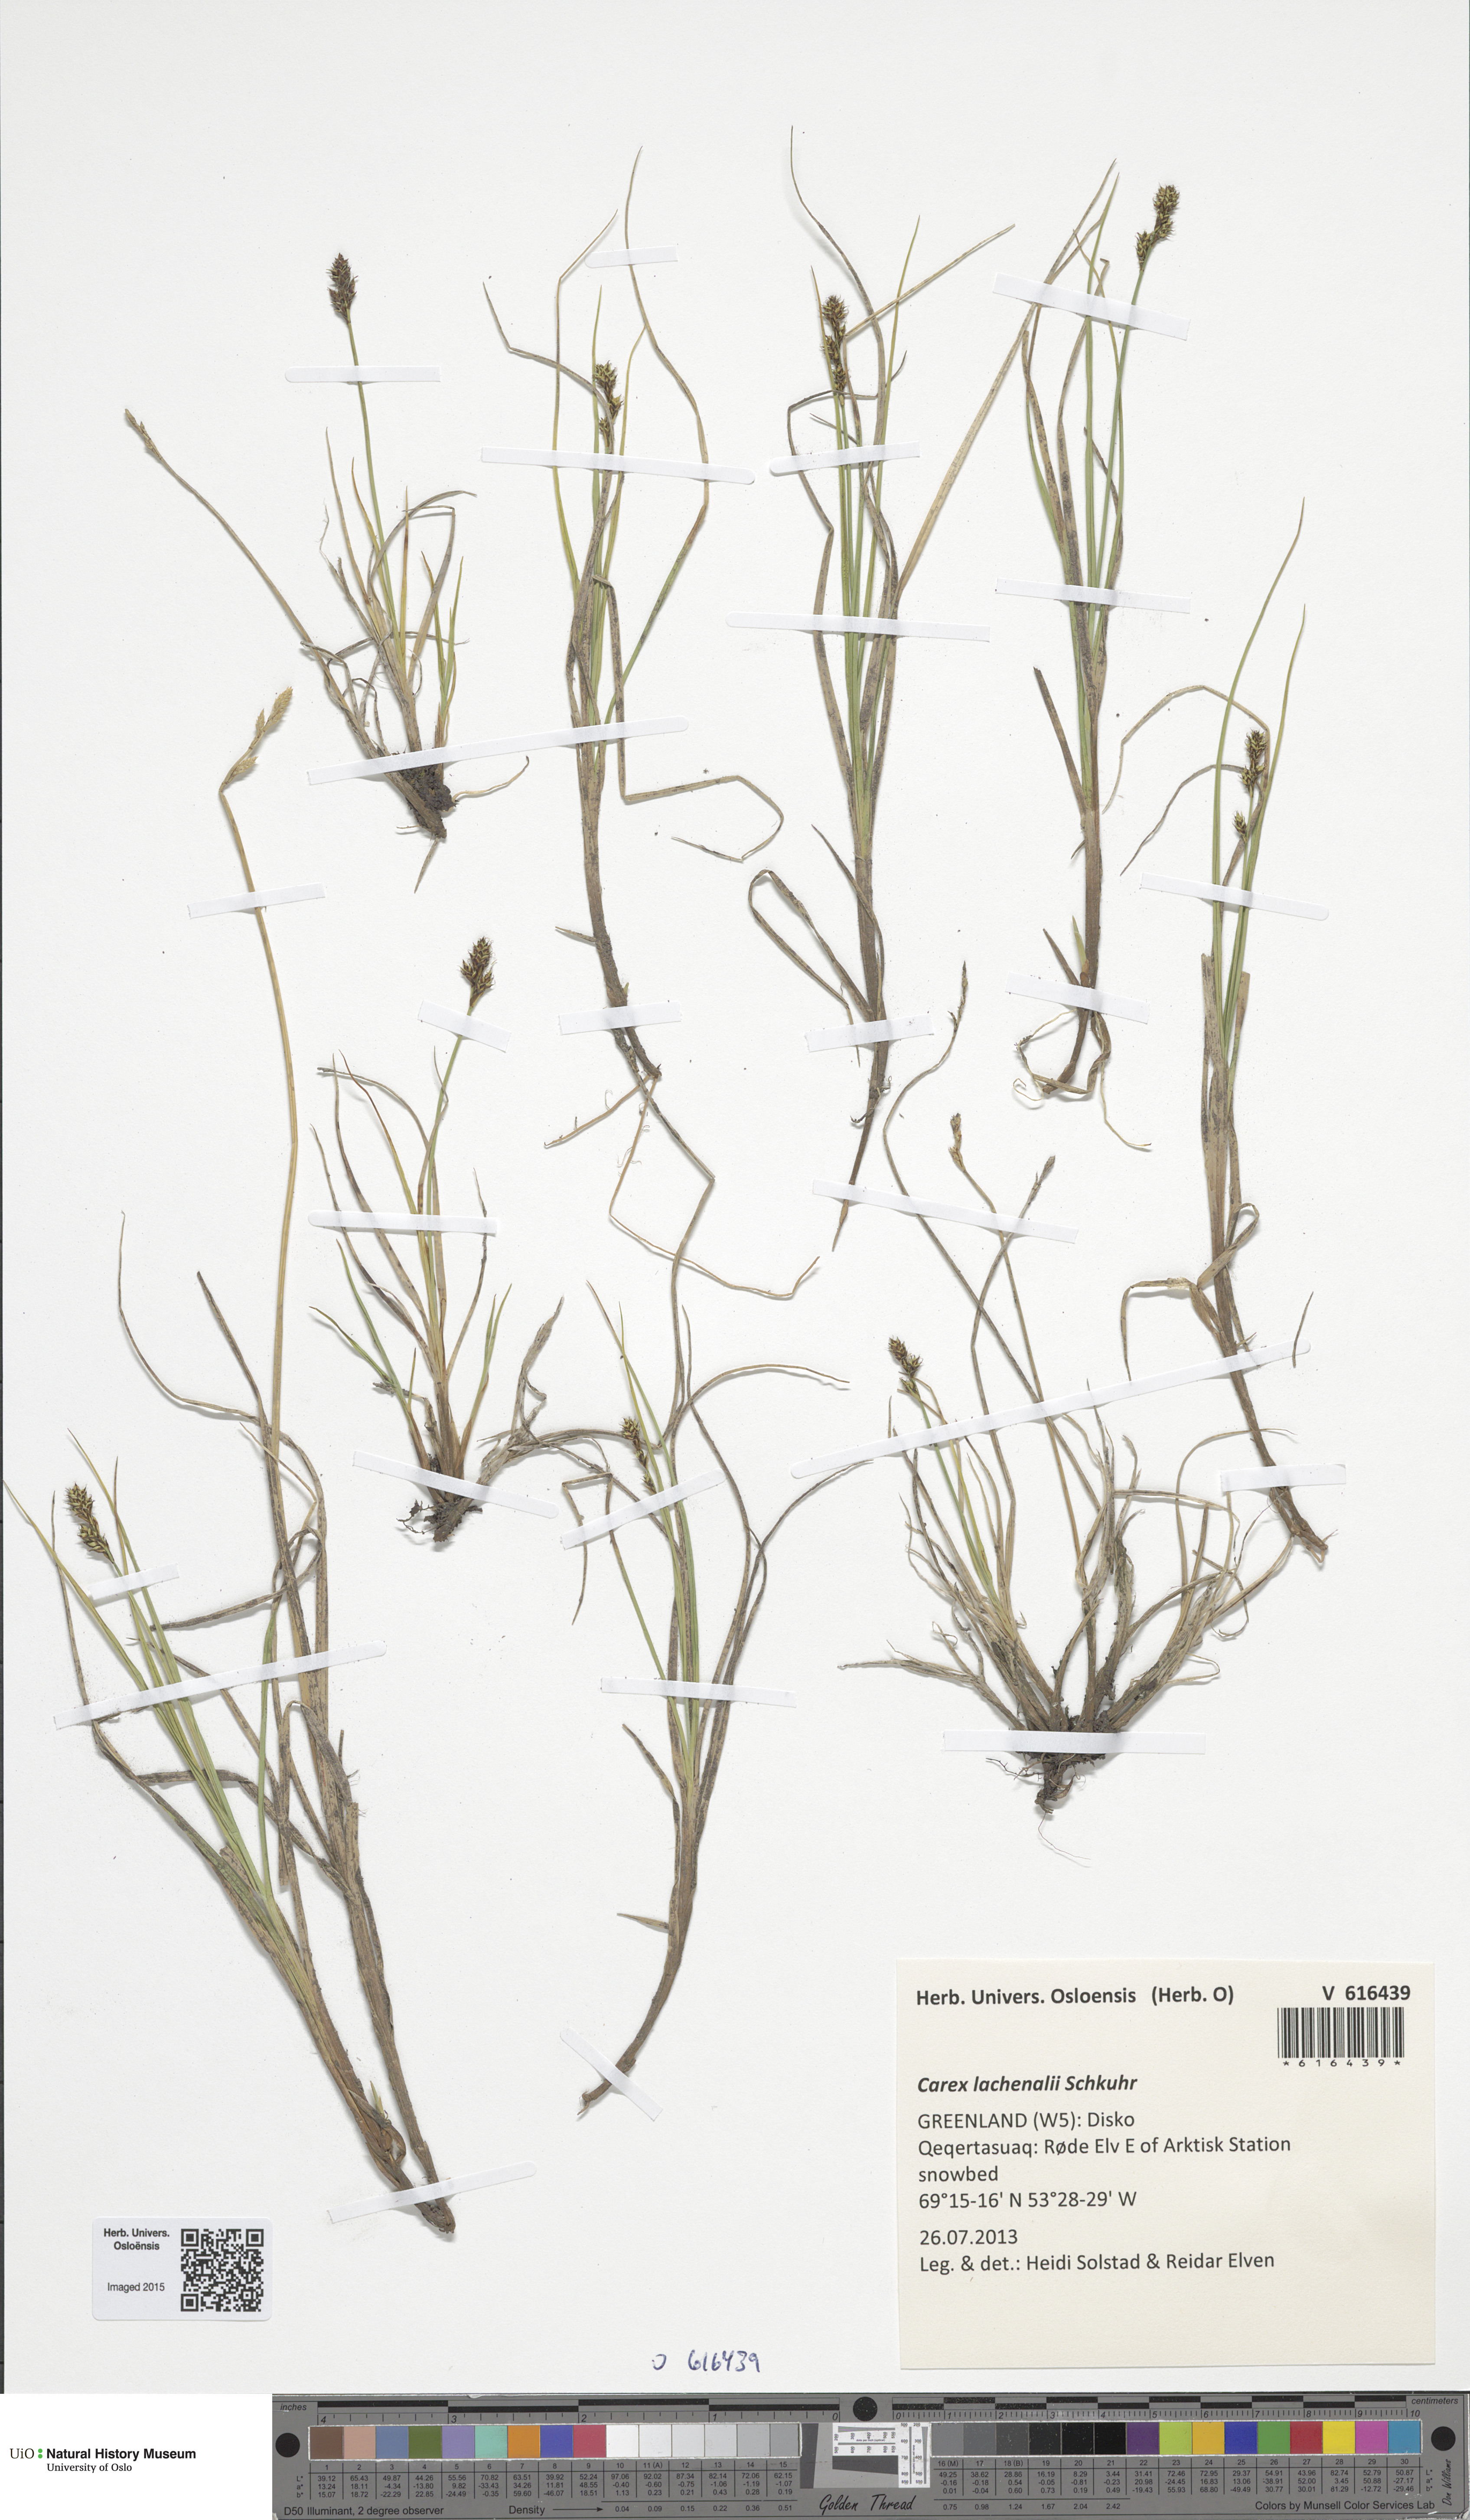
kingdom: Plantae
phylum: Tracheophyta
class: Liliopsida
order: Poales
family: Cyperaceae
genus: Carex
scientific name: Carex lachenalii
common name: Hare's-foot sedge
